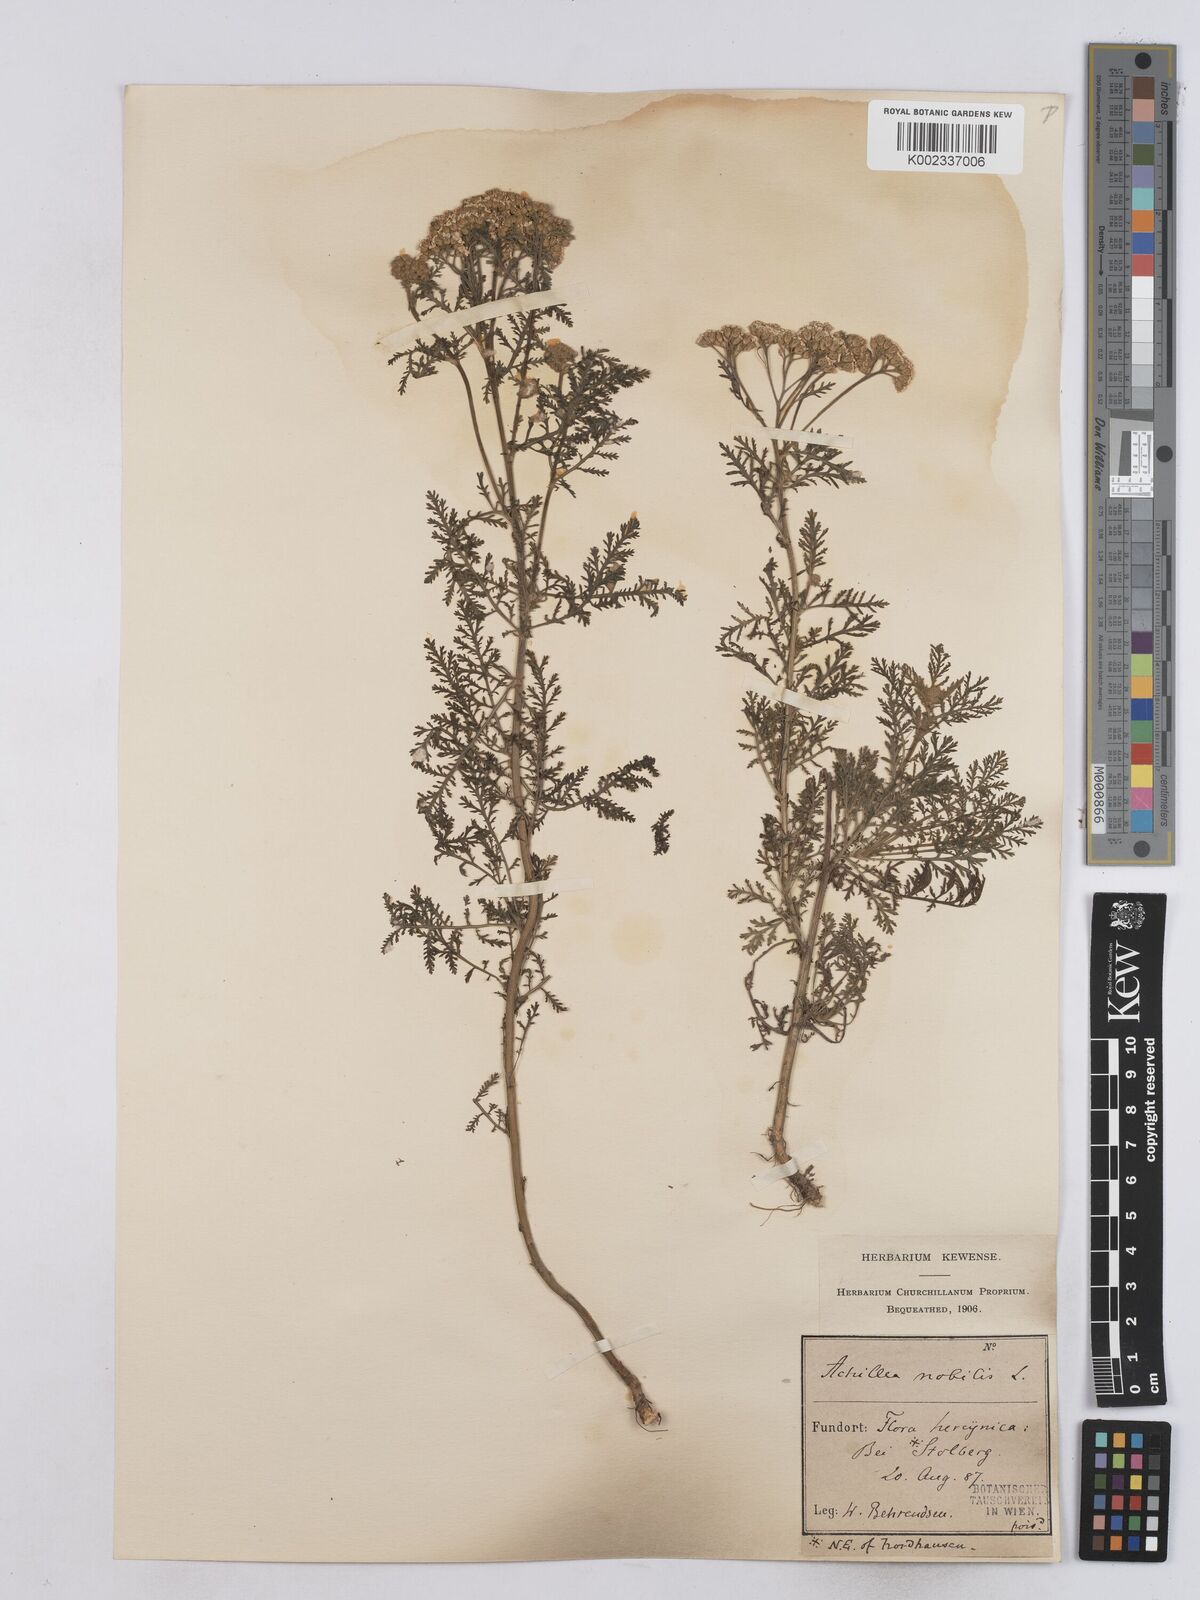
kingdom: Plantae
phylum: Tracheophyta
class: Magnoliopsida
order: Asterales
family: Asteraceae
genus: Achillea
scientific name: Achillea nobilis
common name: Noble yarrow
